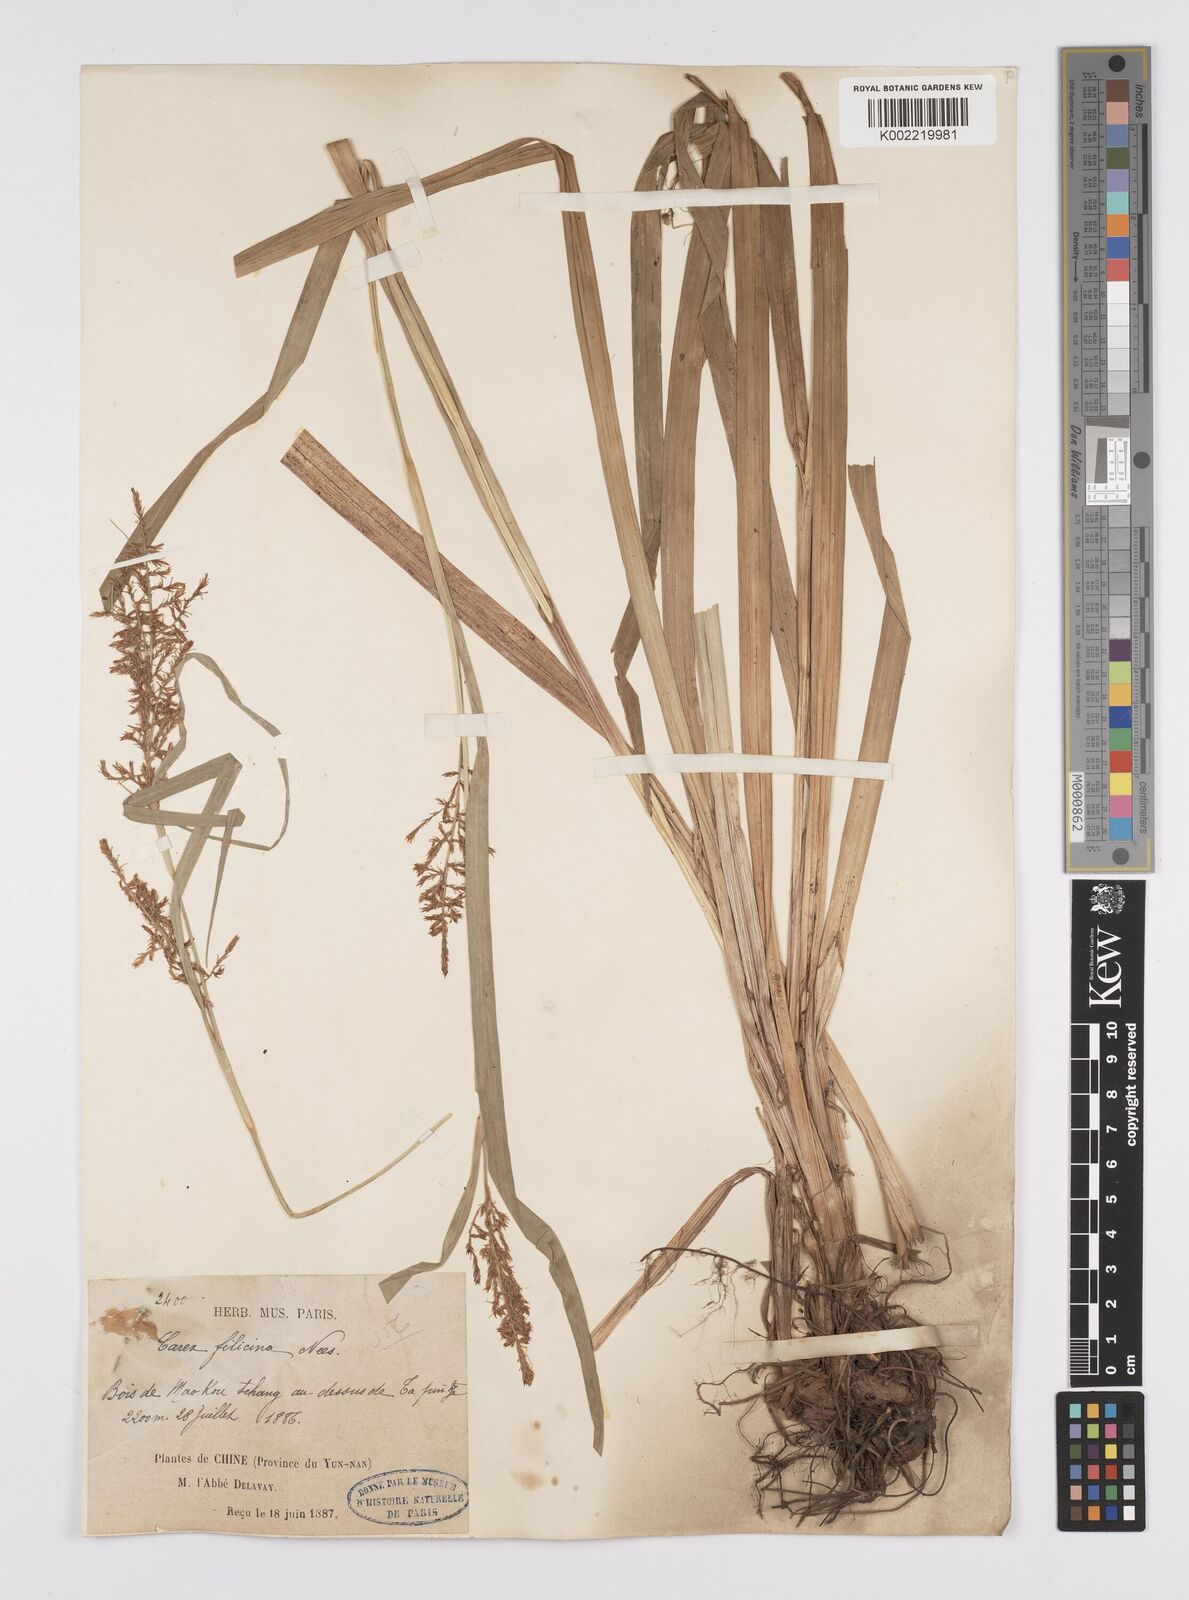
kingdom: Plantae
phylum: Tracheophyta
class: Liliopsida
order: Poales
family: Cyperaceae
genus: Carex
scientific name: Carex filicina
